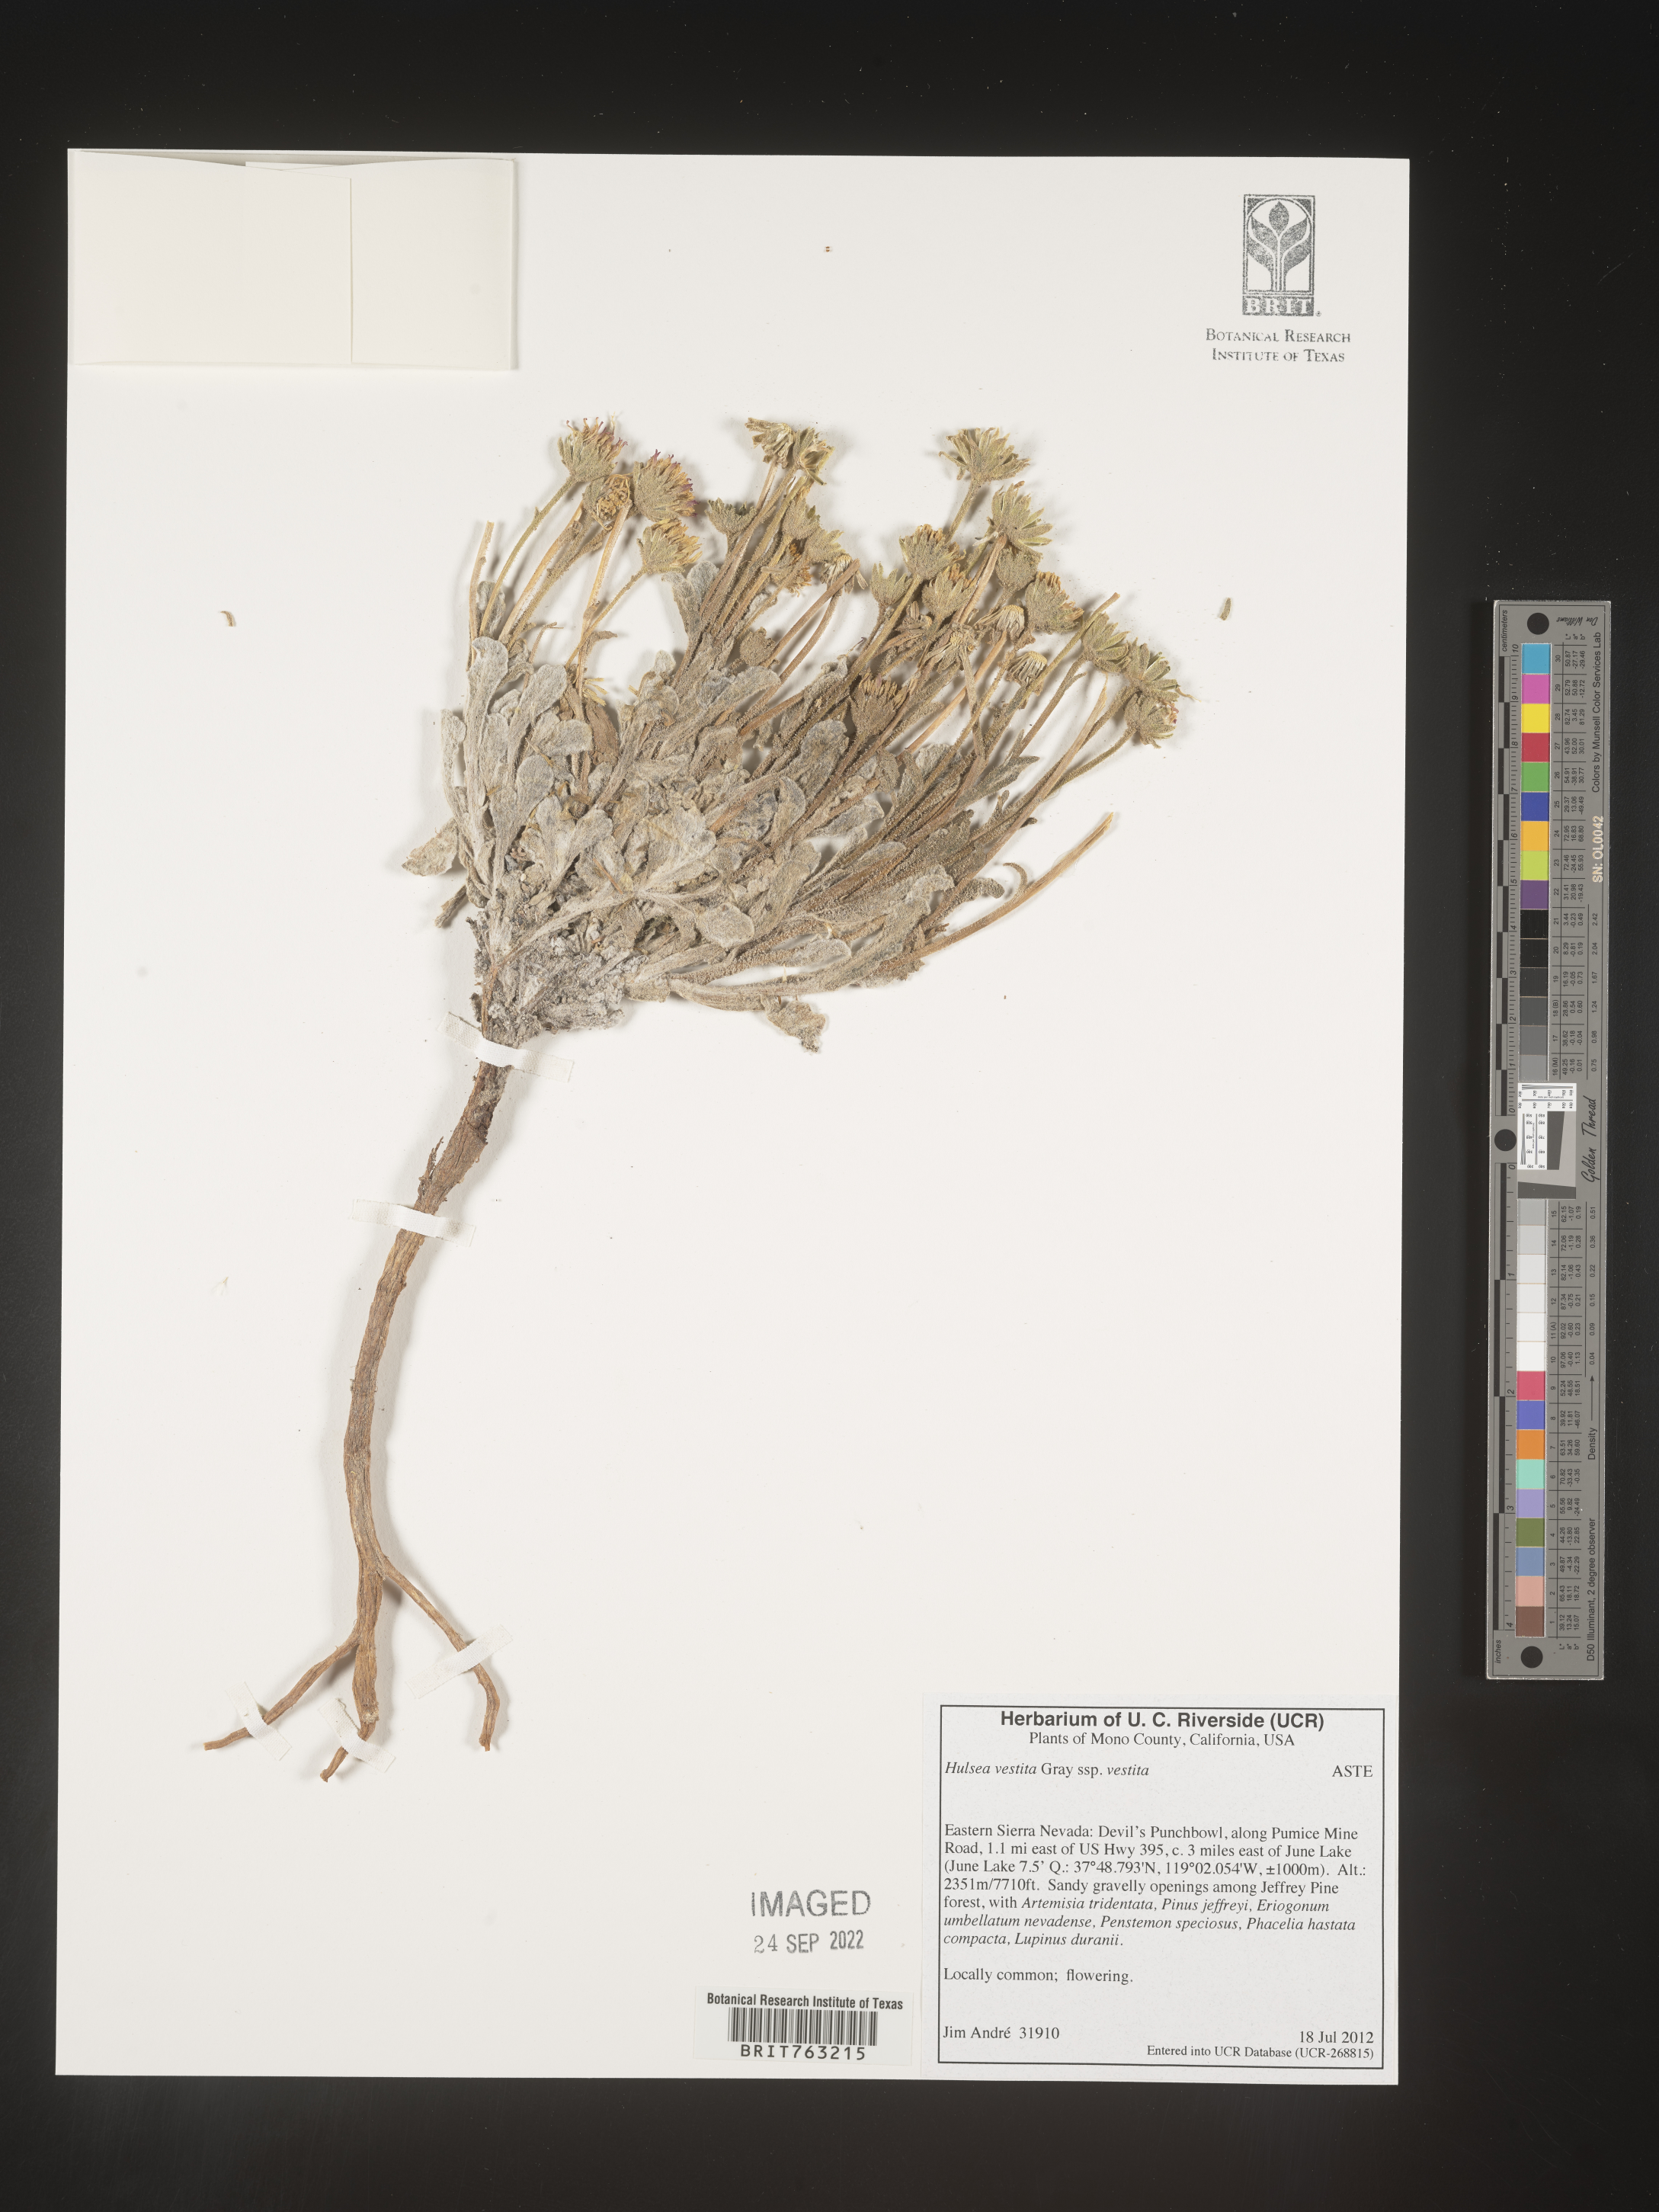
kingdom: Plantae
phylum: Tracheophyta
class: Magnoliopsida
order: Asterales
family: Asteraceae
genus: Hulsea
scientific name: Hulsea vestita
